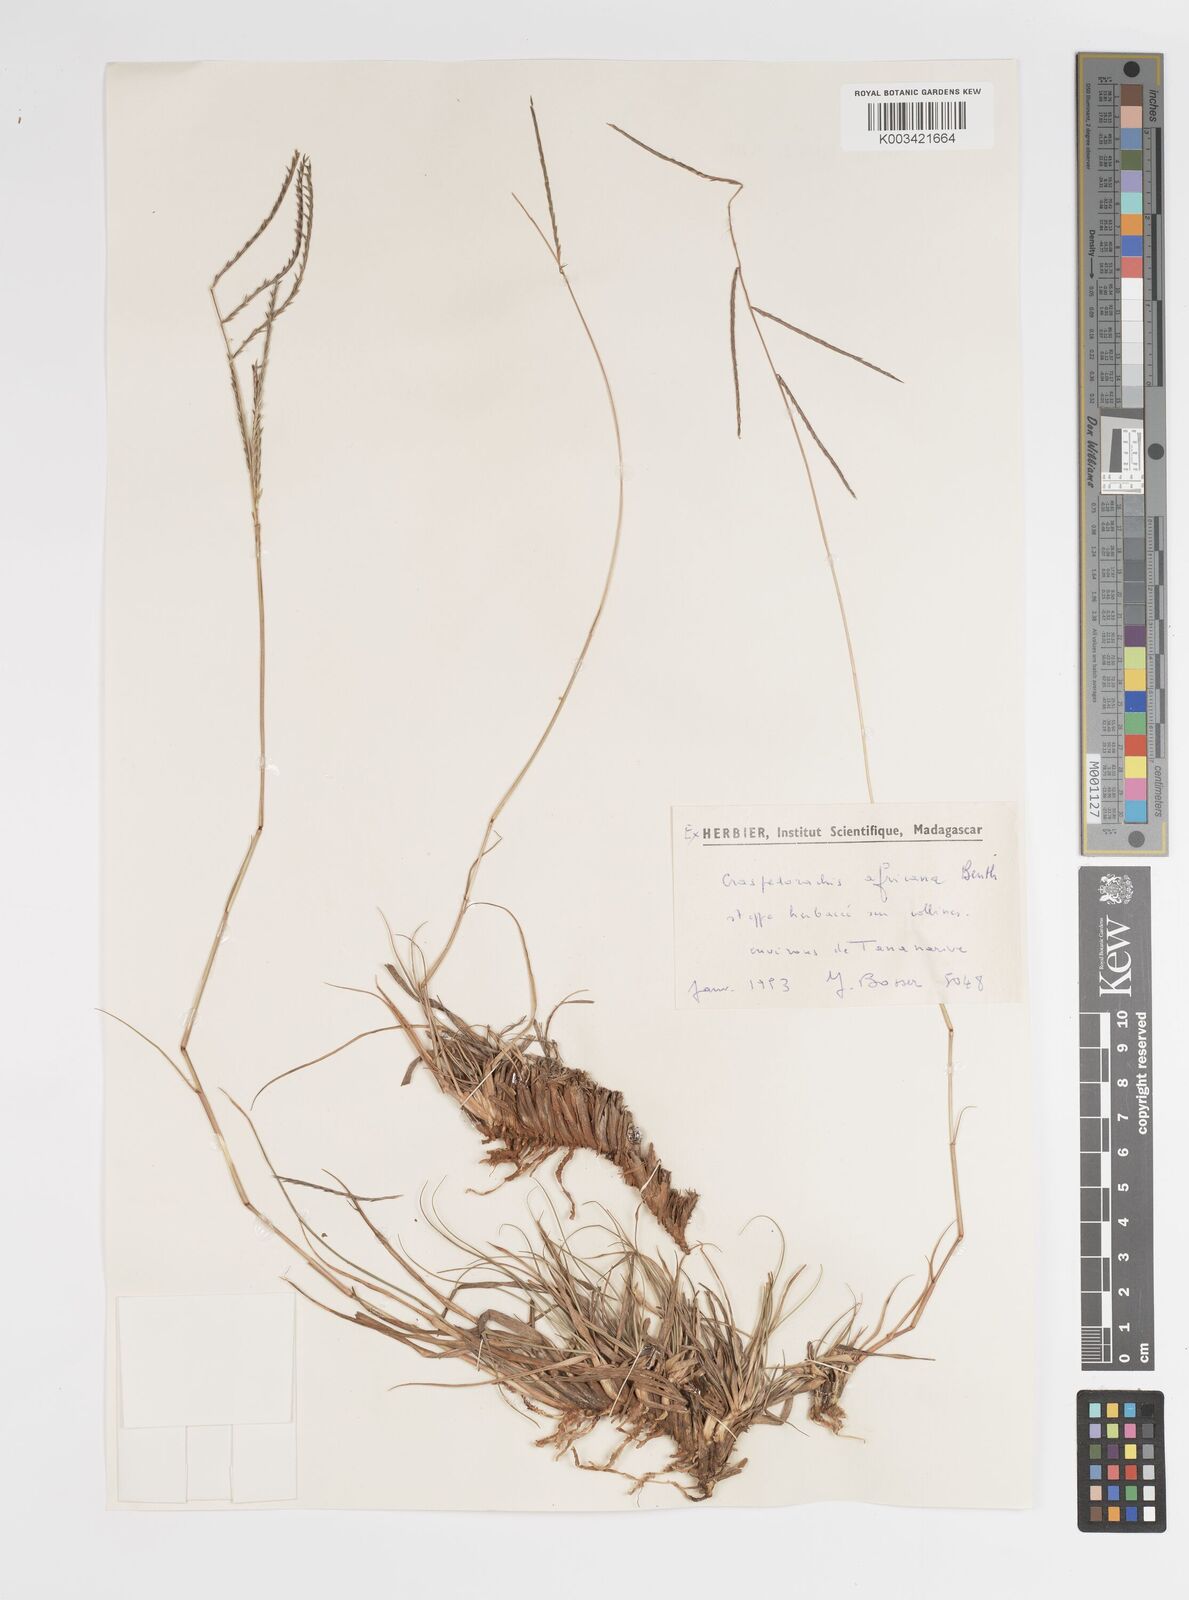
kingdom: Plantae
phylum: Tracheophyta
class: Liliopsida
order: Poales
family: Poaceae
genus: Craspedorhachis
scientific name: Craspedorhachis africana
